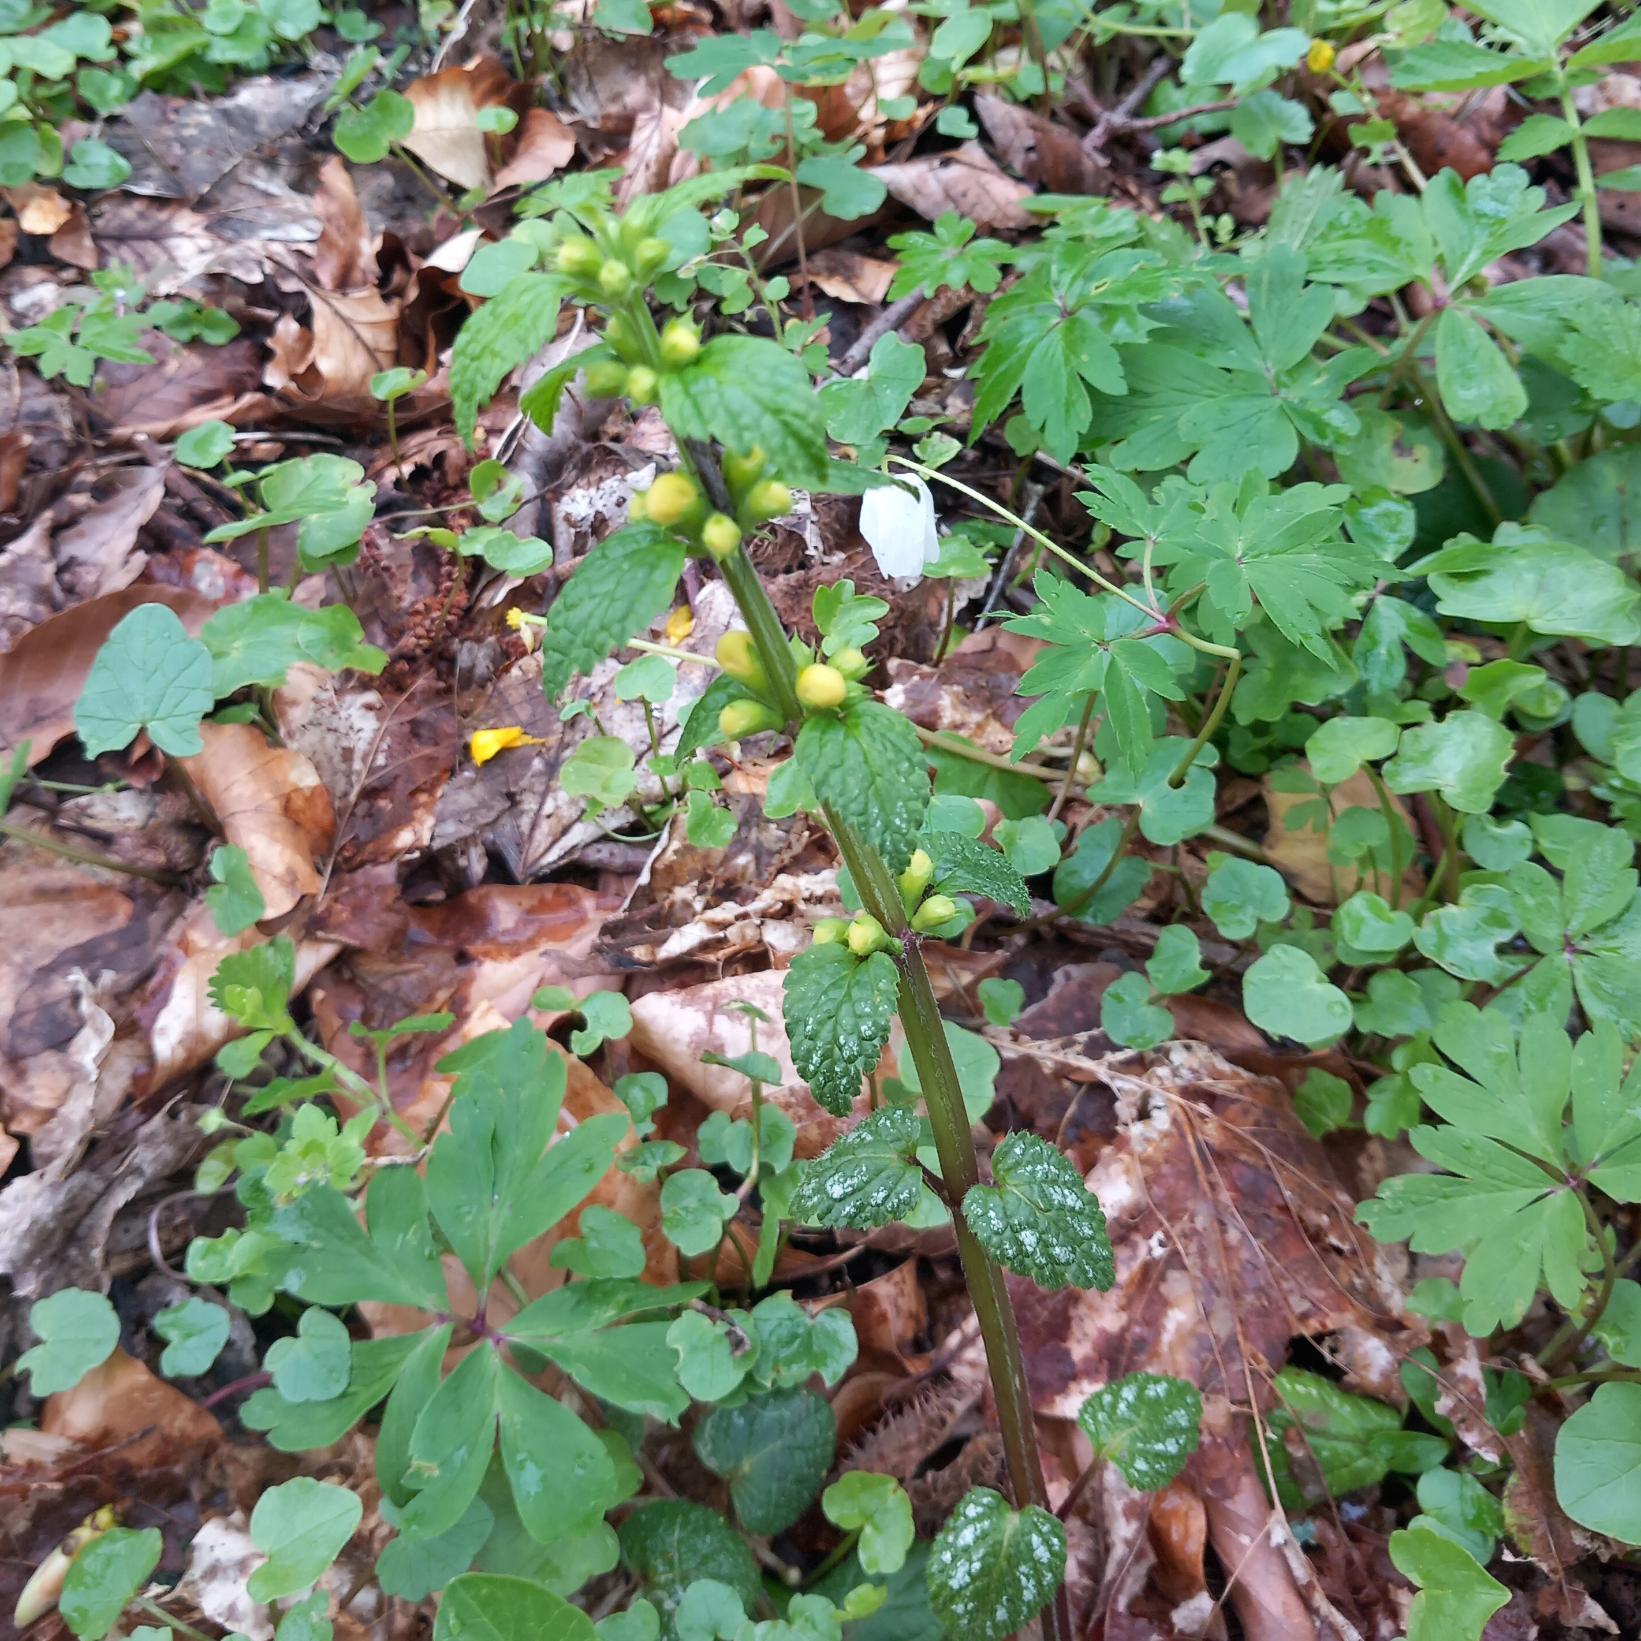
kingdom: Plantae
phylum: Tracheophyta
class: Magnoliopsida
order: Lamiales
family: Lamiaceae
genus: Lamium
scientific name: Lamium galeobdolon
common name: Almindelig guldnælde
